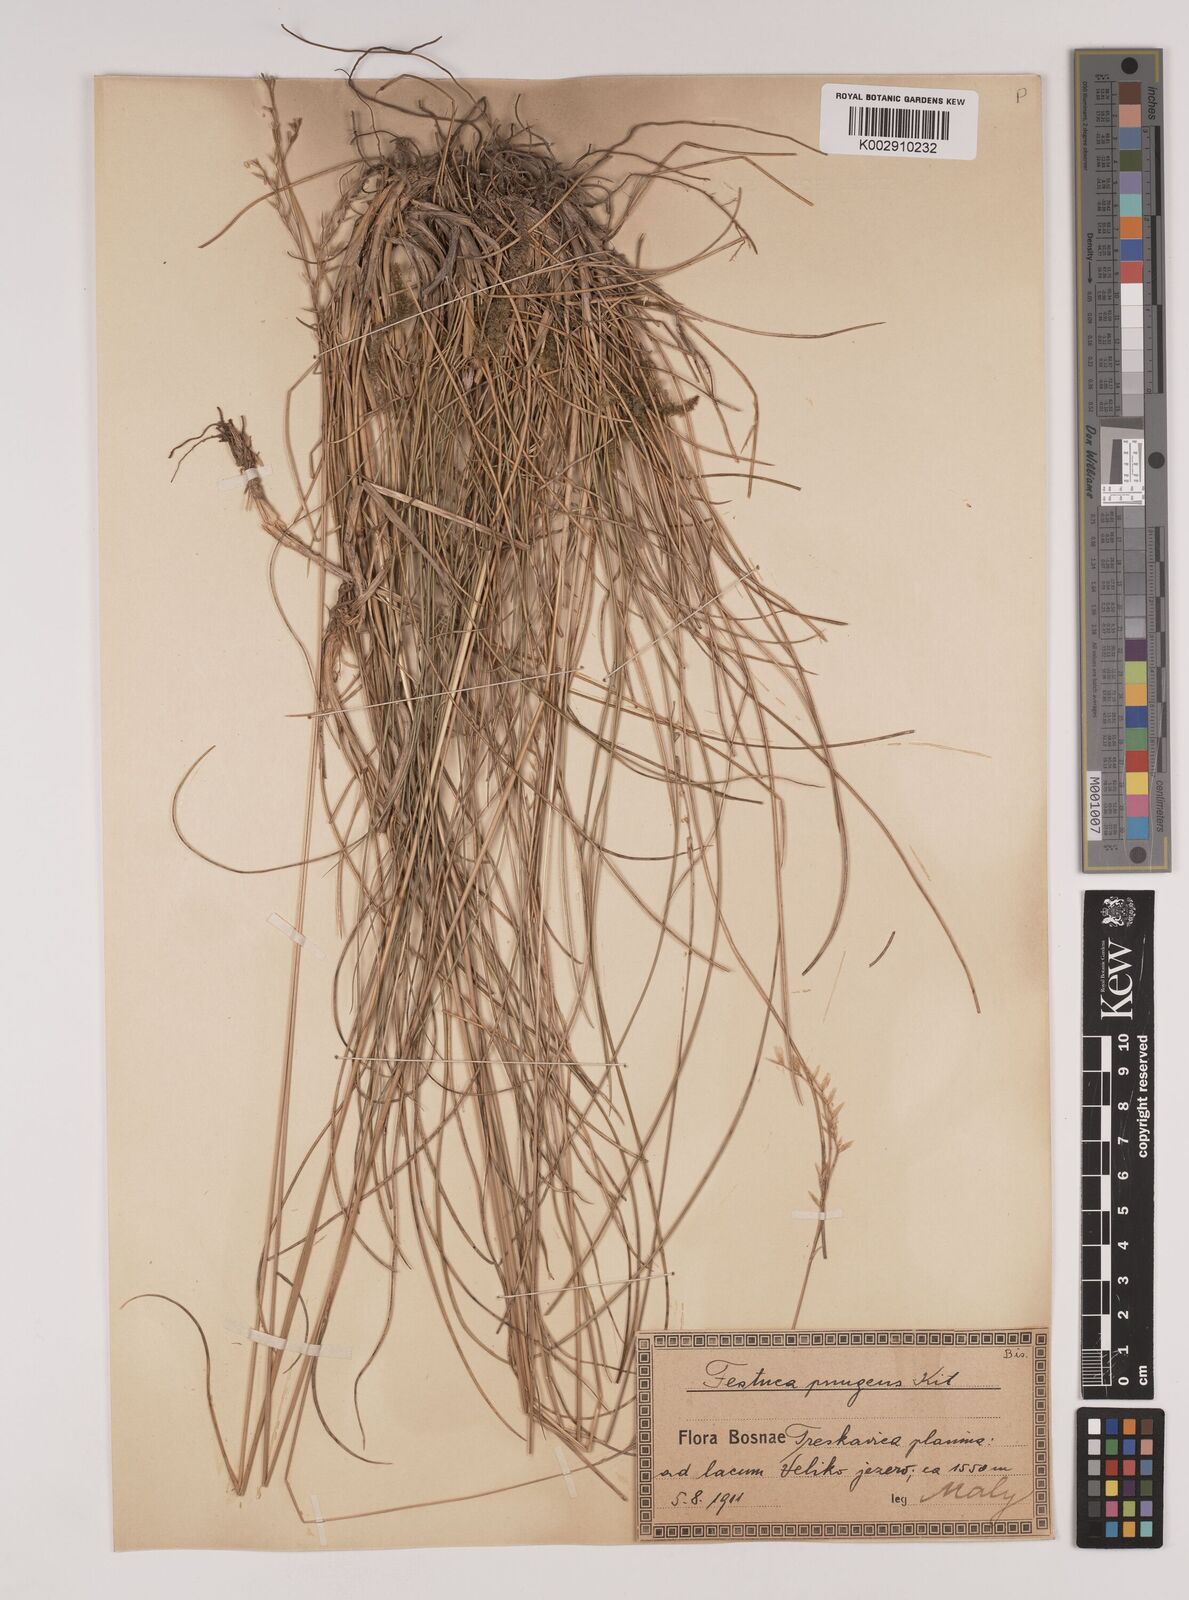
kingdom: Plantae
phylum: Tracheophyta
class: Liliopsida
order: Poales
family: Poaceae
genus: Festuca
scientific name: Festuca bosniaca
